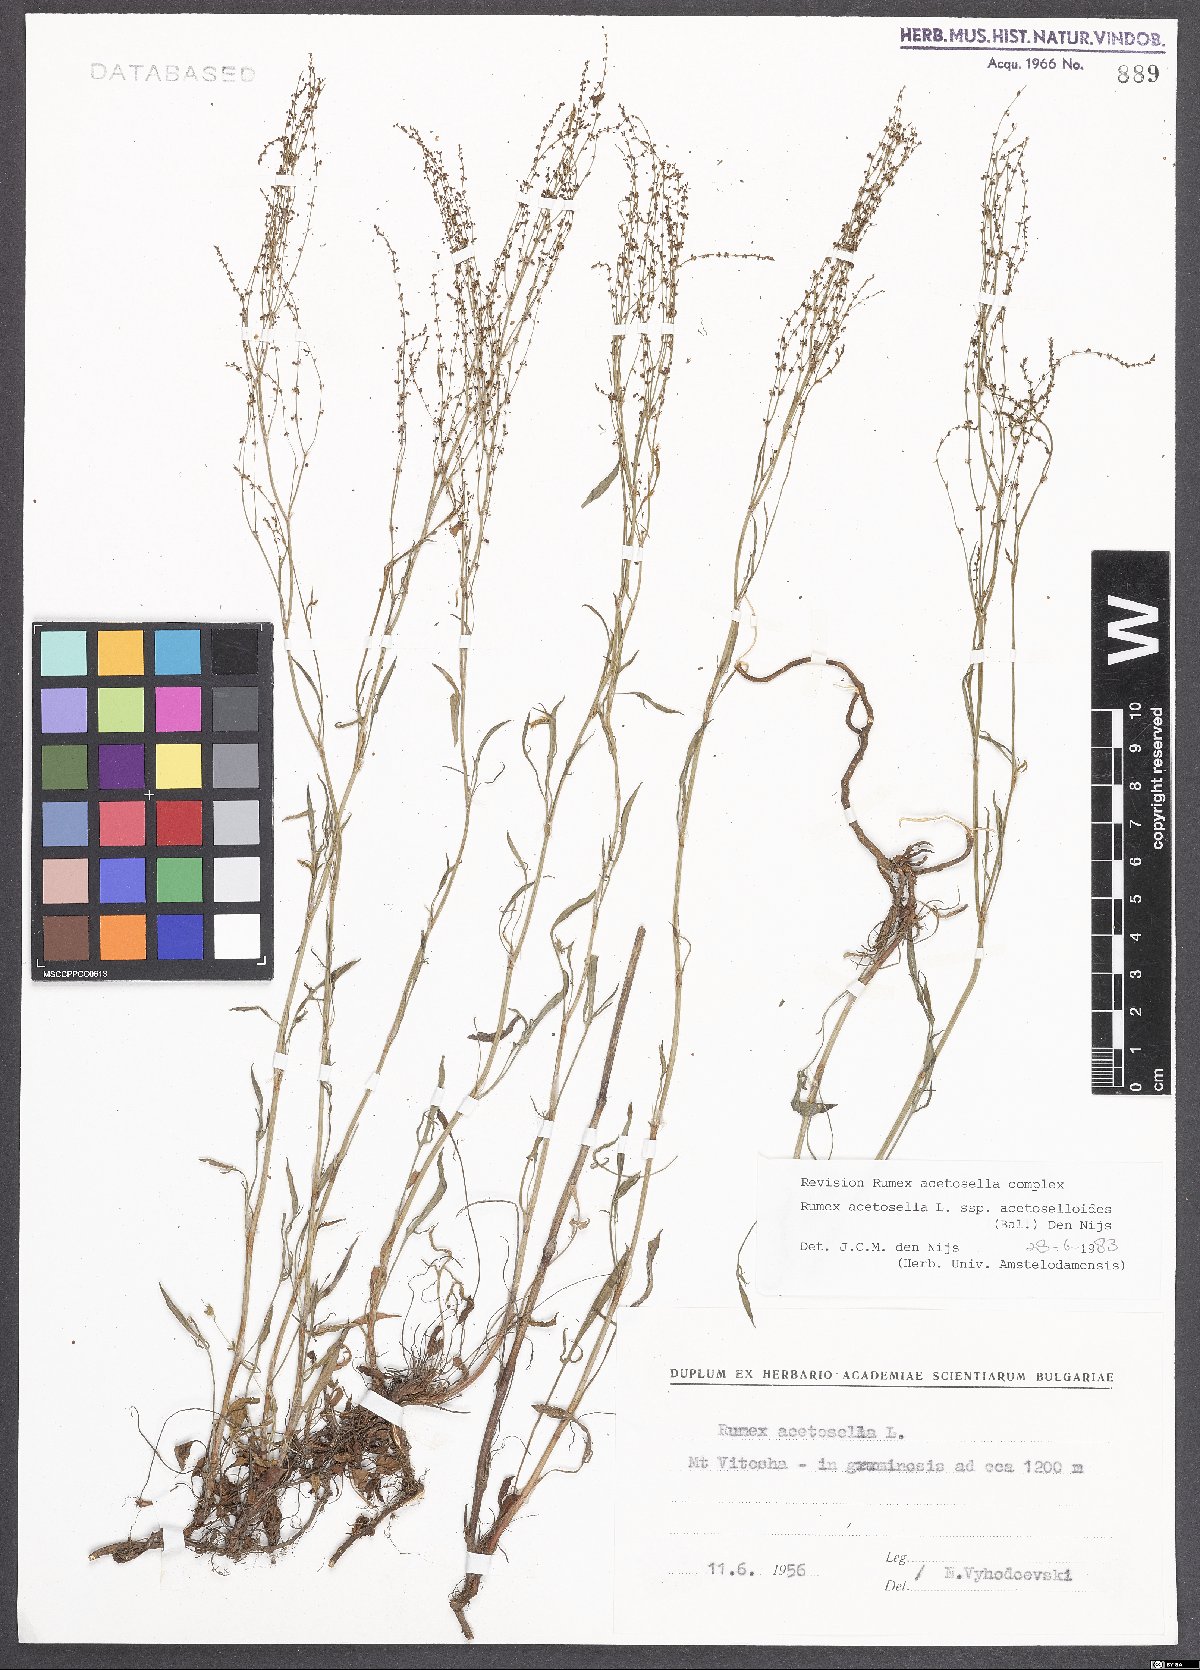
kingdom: Plantae
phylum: Tracheophyta
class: Magnoliopsida
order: Caryophyllales
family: Polygonaceae
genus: Rumex
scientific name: Rumex acetosella
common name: Common sheep sorrel
